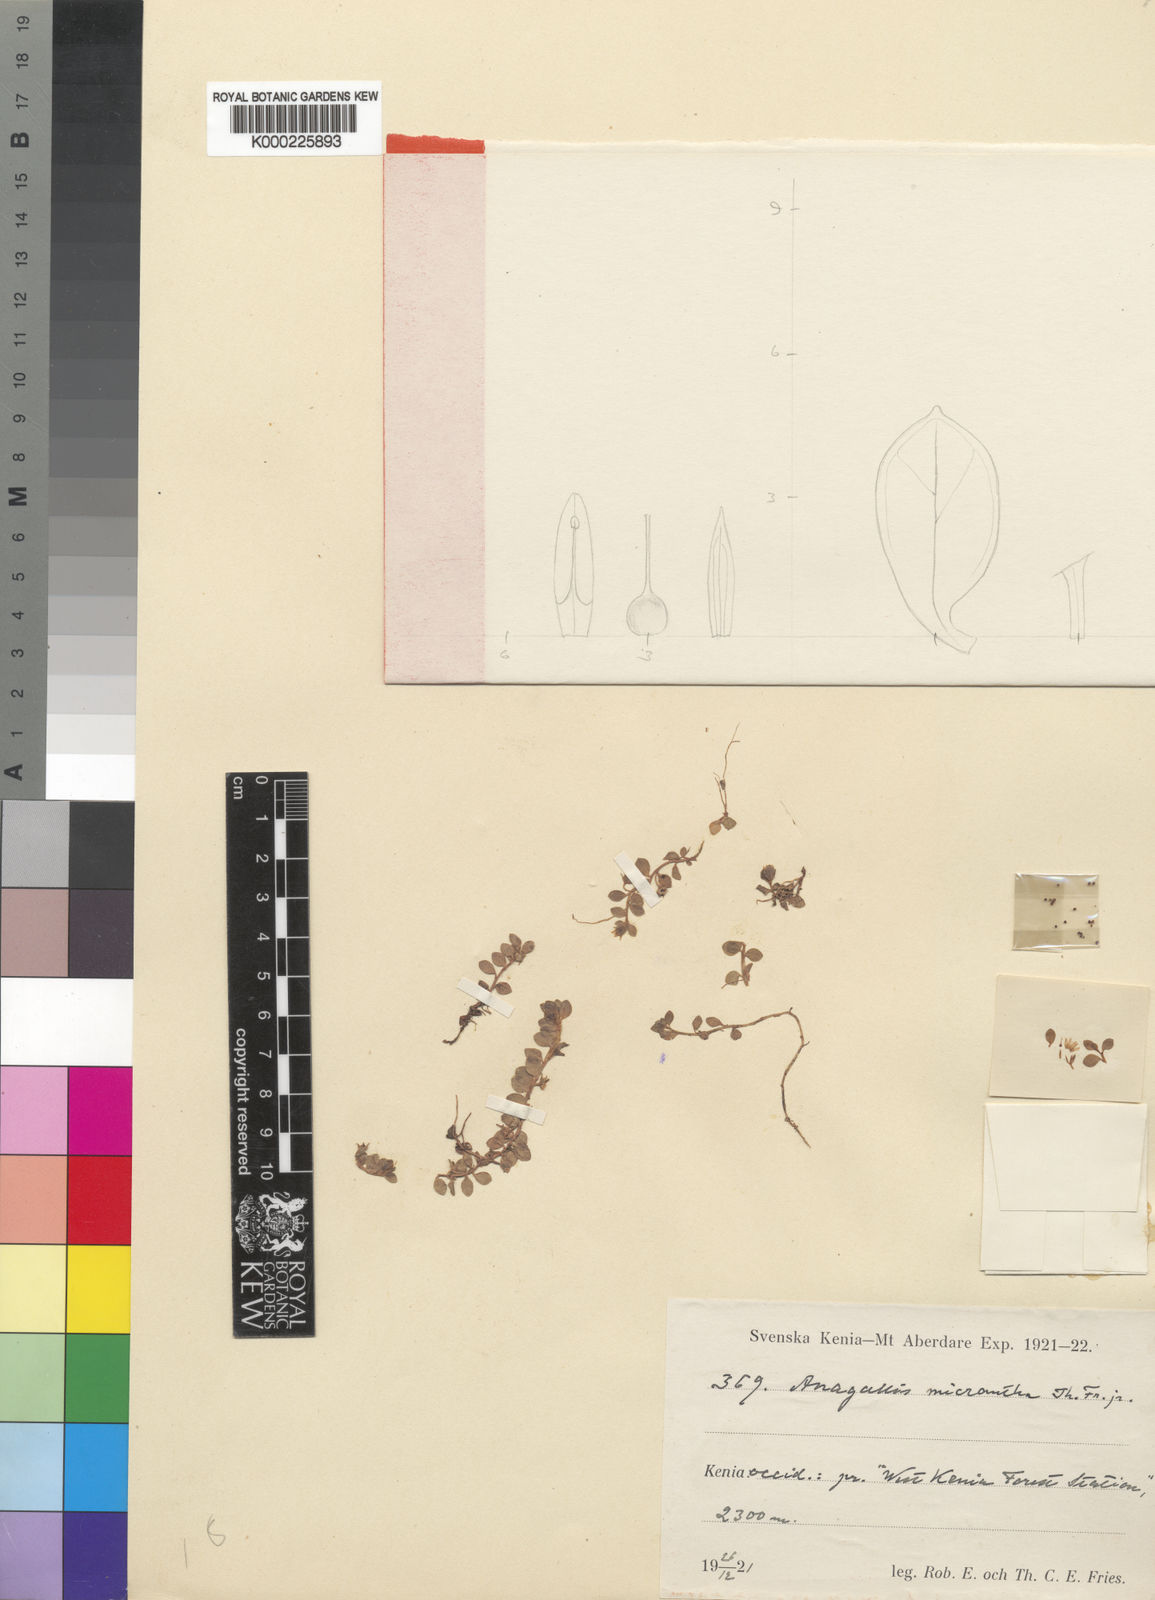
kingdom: Plantae
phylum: Tracheophyta
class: Magnoliopsida
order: Ericales
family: Primulaceae
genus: Lysimachia
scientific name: Lysimachia Anagallis spec
